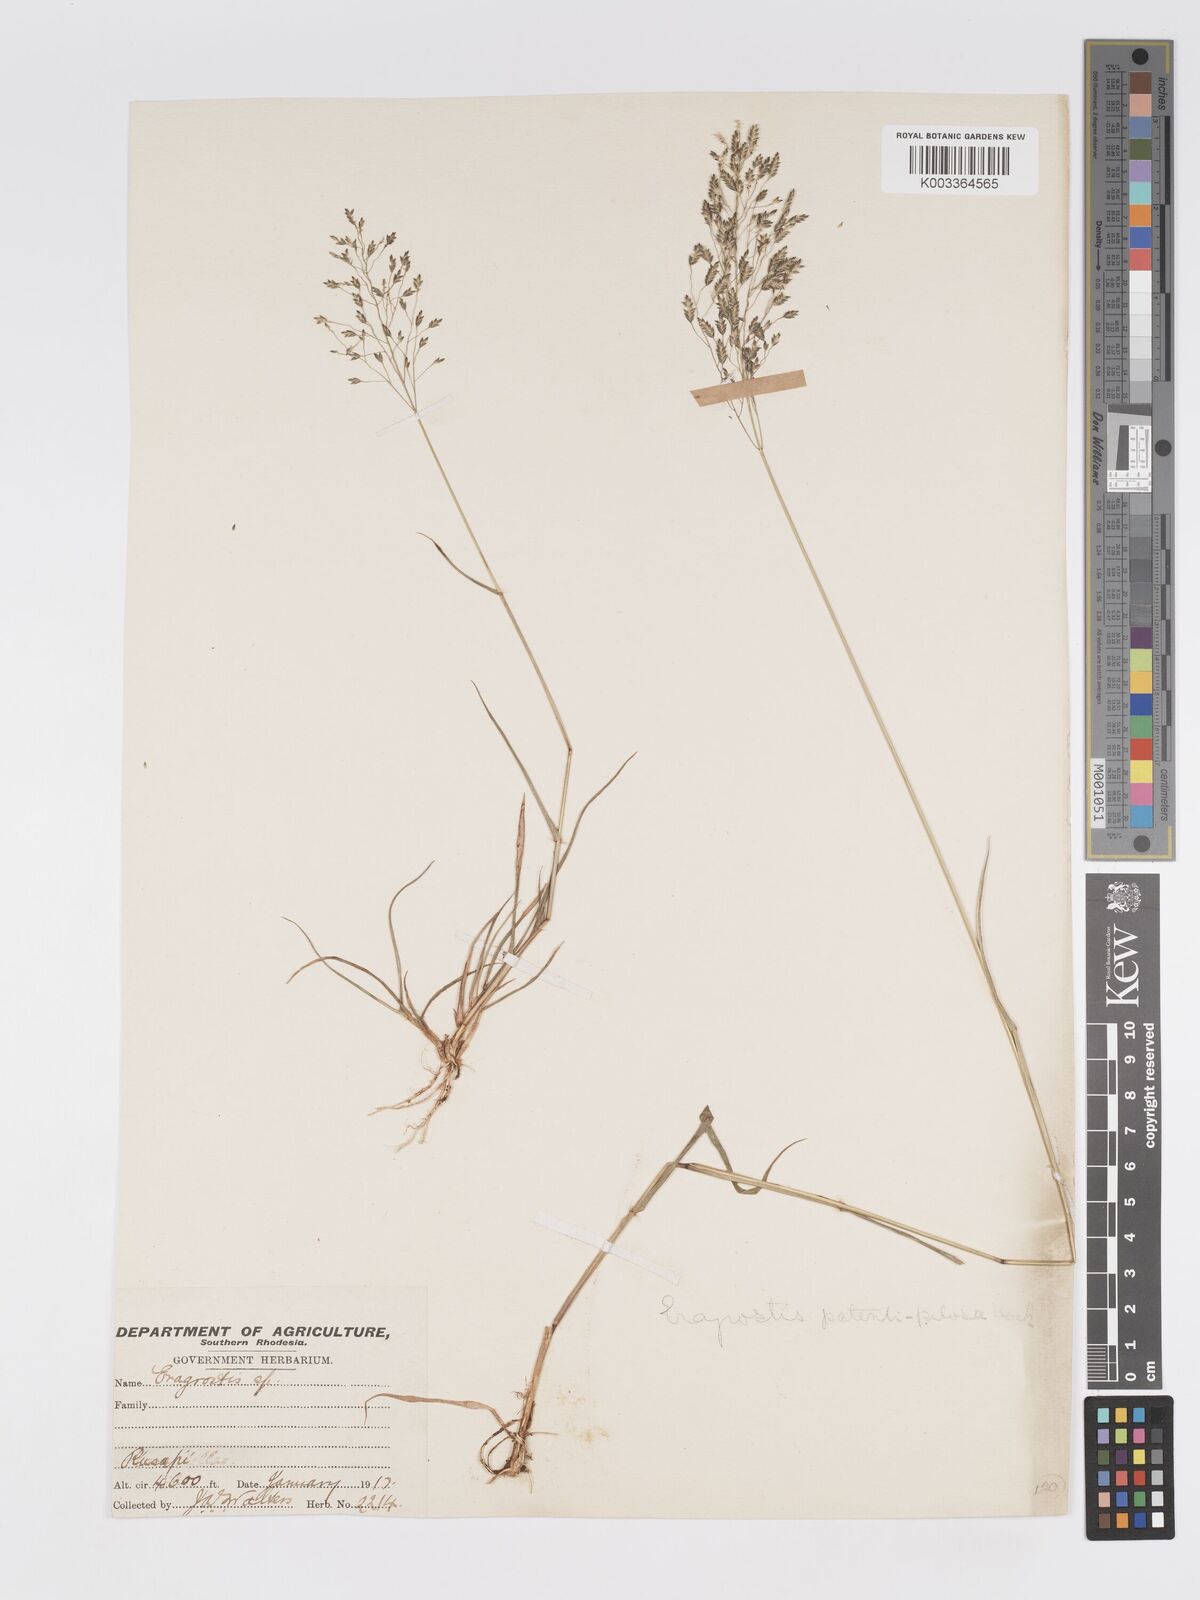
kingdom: Plantae
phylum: Tracheophyta
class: Liliopsida
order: Poales
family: Poaceae
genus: Eragrostis
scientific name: Eragrostis patentipilosa
